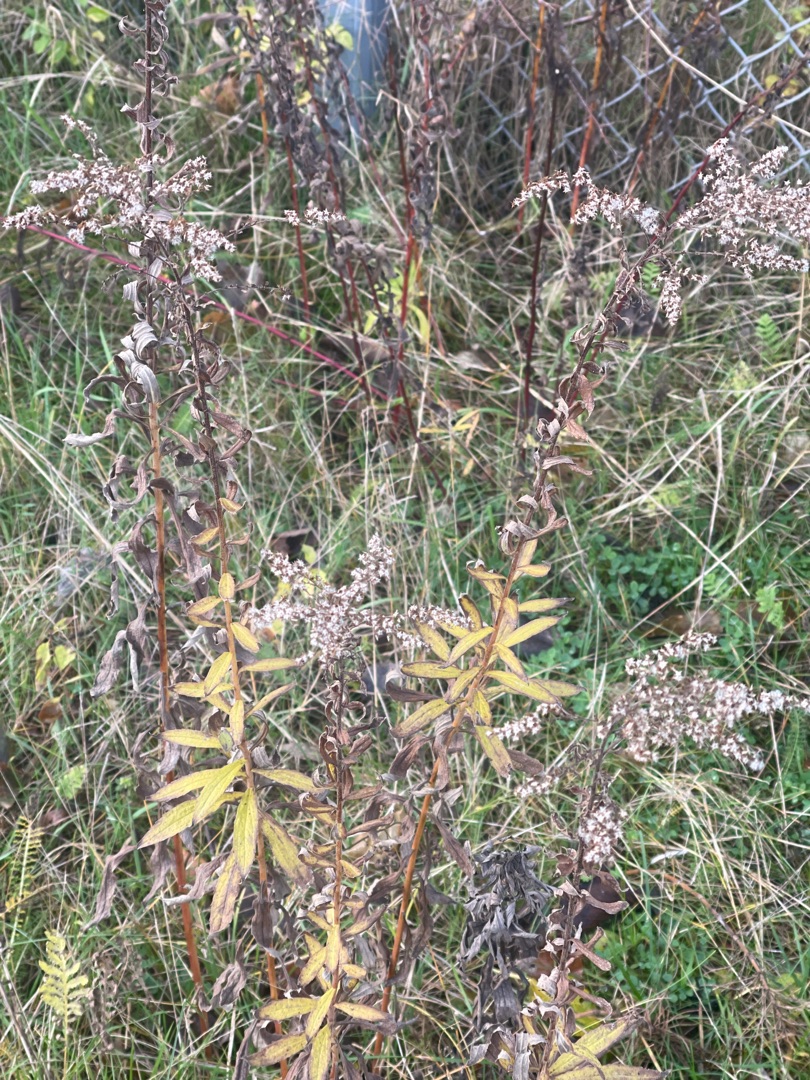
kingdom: Plantae
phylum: Tracheophyta
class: Magnoliopsida
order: Asterales
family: Asteraceae
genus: Solidago
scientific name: Solidago canadensis
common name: Kanadisk gyldenris
